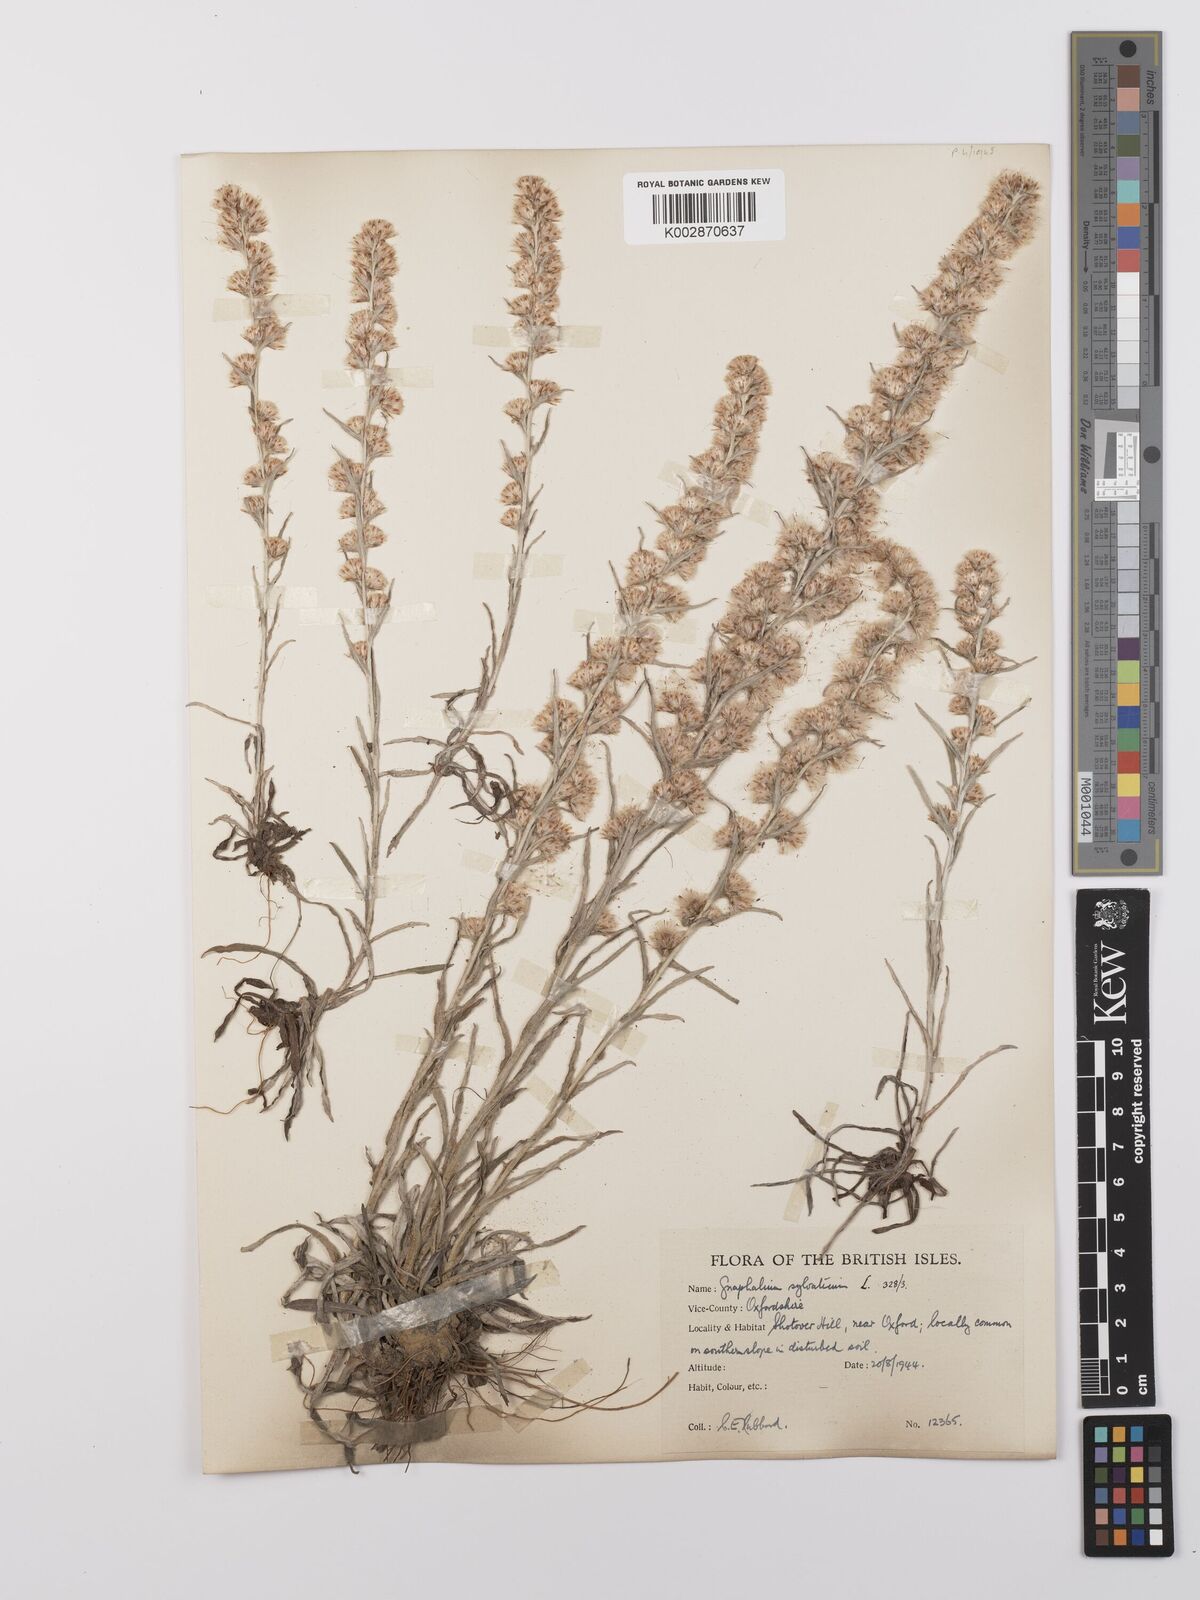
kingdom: Plantae
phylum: Tracheophyta
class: Magnoliopsida
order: Asterales
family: Asteraceae
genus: Omalotheca
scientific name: Omalotheca sylvatica
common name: Heath cudweed
